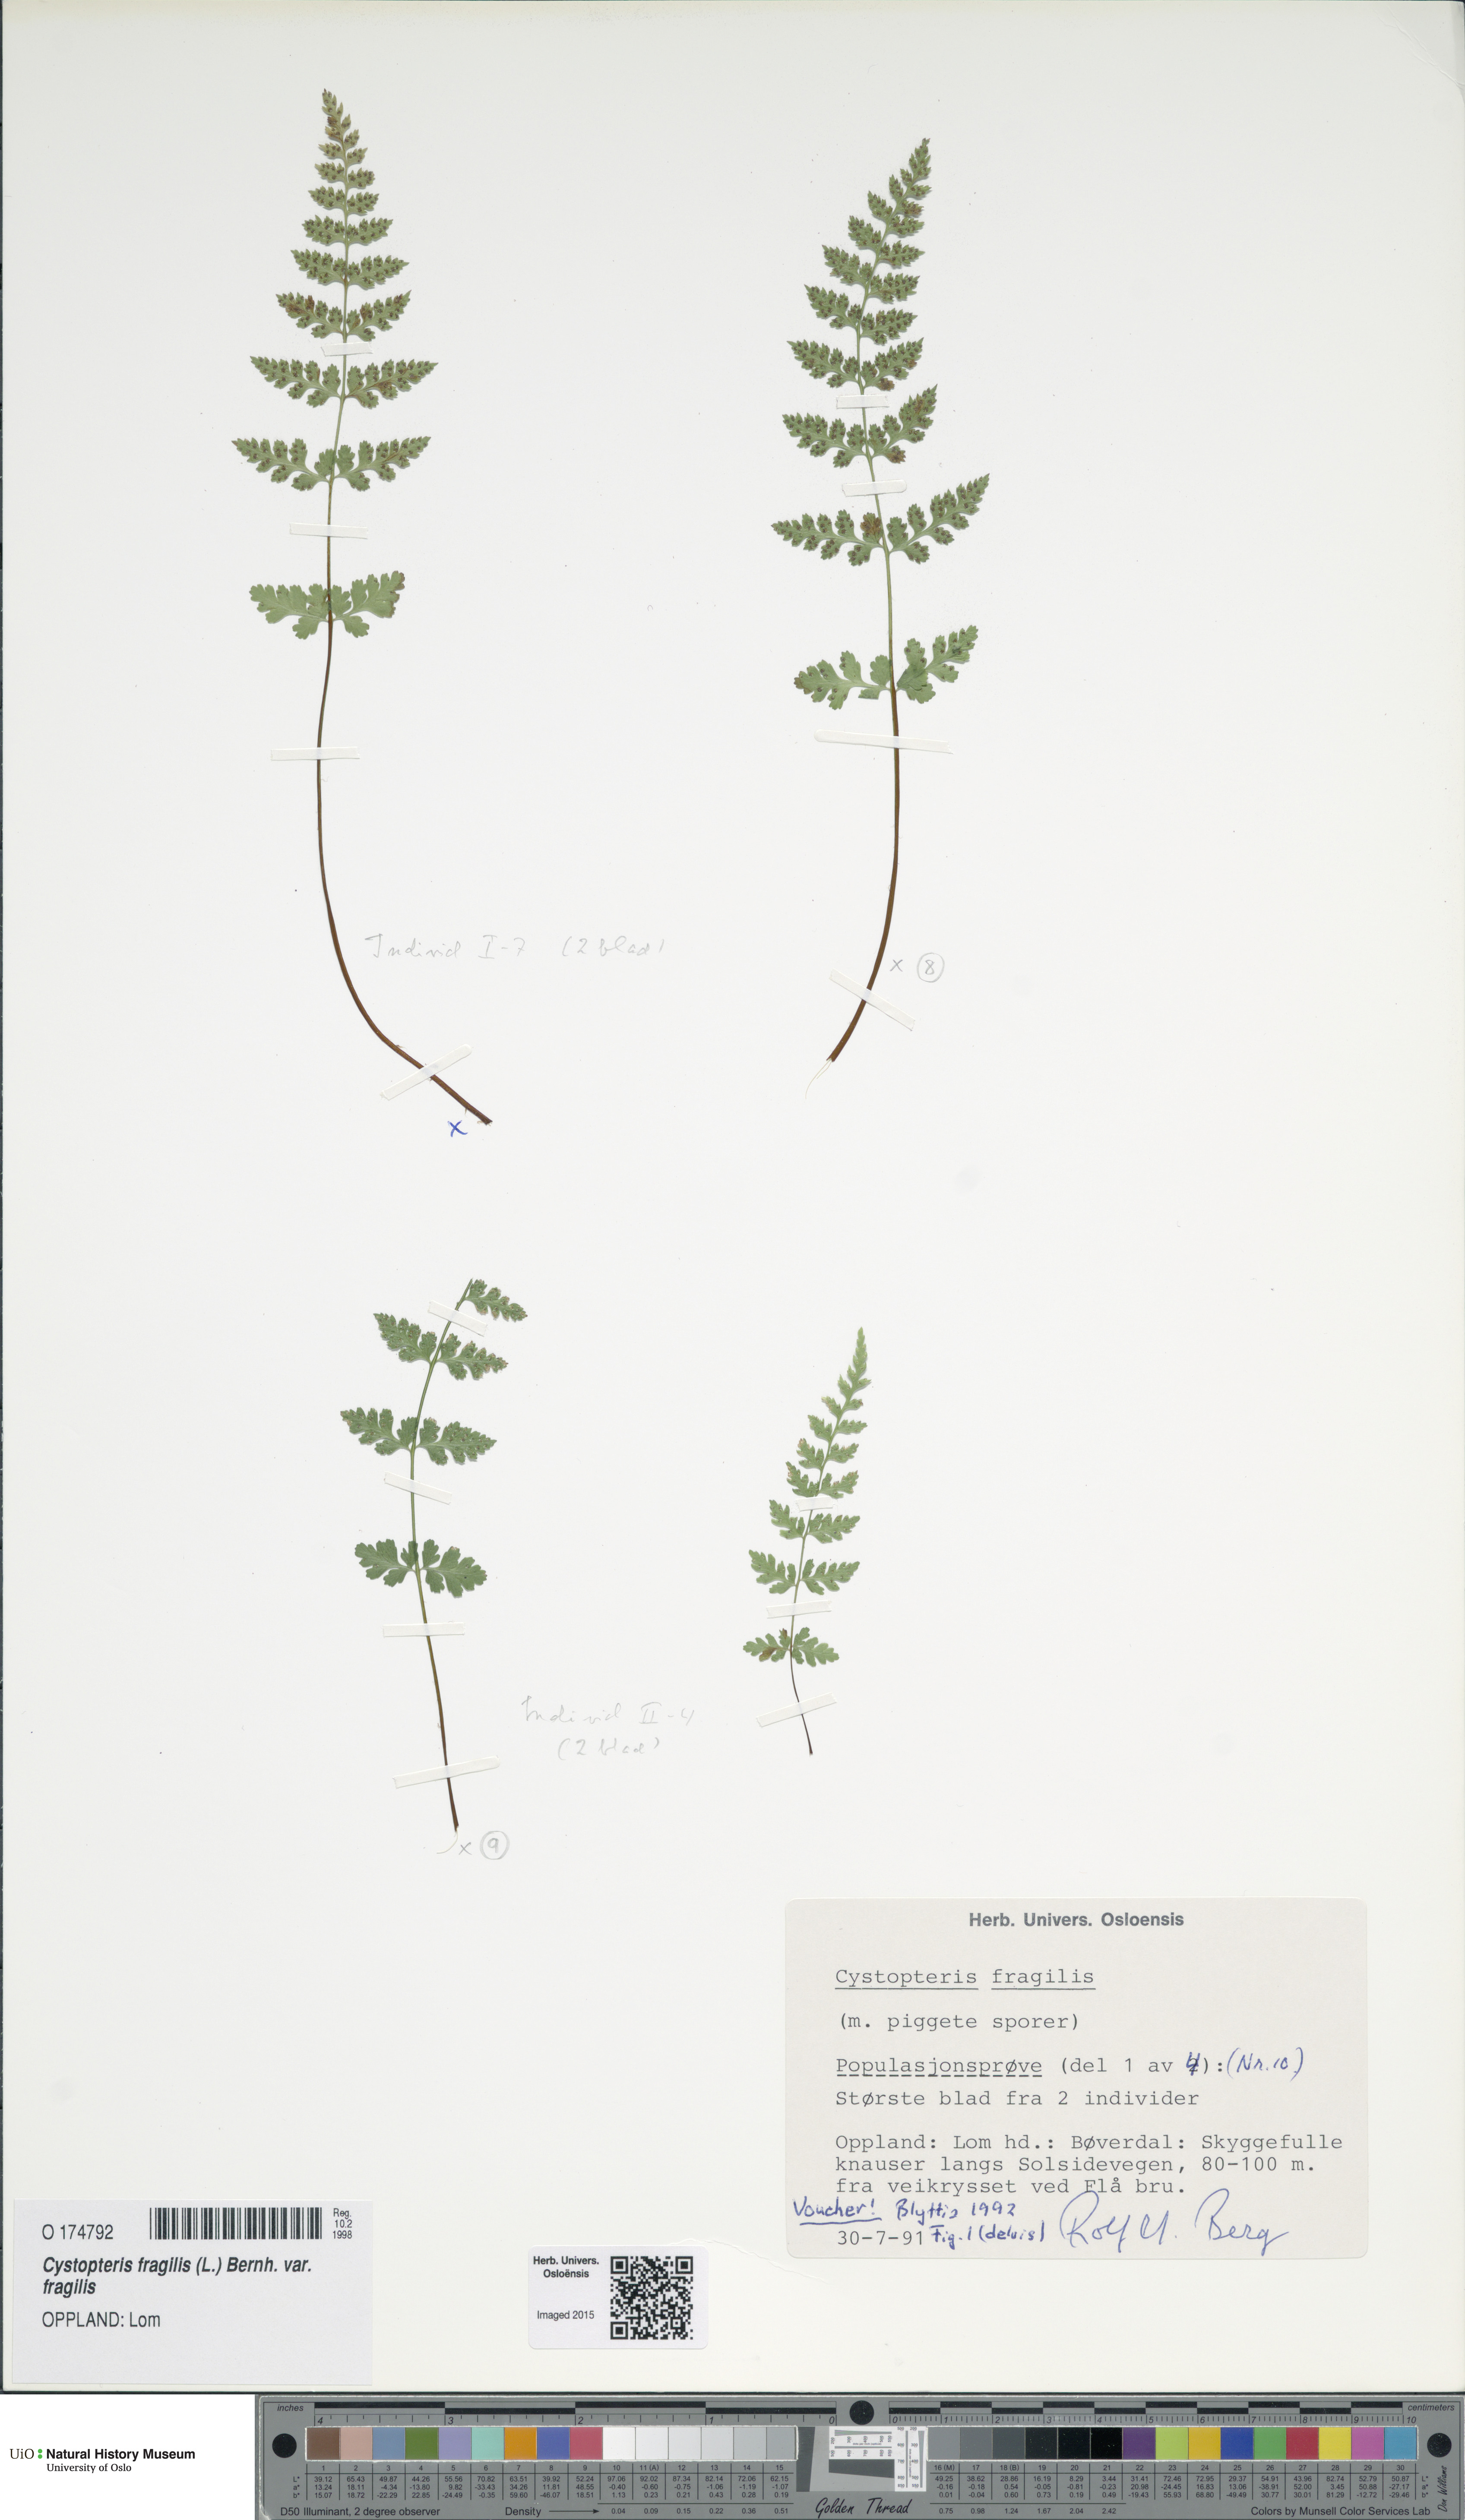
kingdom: Plantae
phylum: Tracheophyta
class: Polypodiopsida
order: Polypodiales
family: Cystopteridaceae
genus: Cystopteris
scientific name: Cystopteris fragilis
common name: Brittle bladder fern
